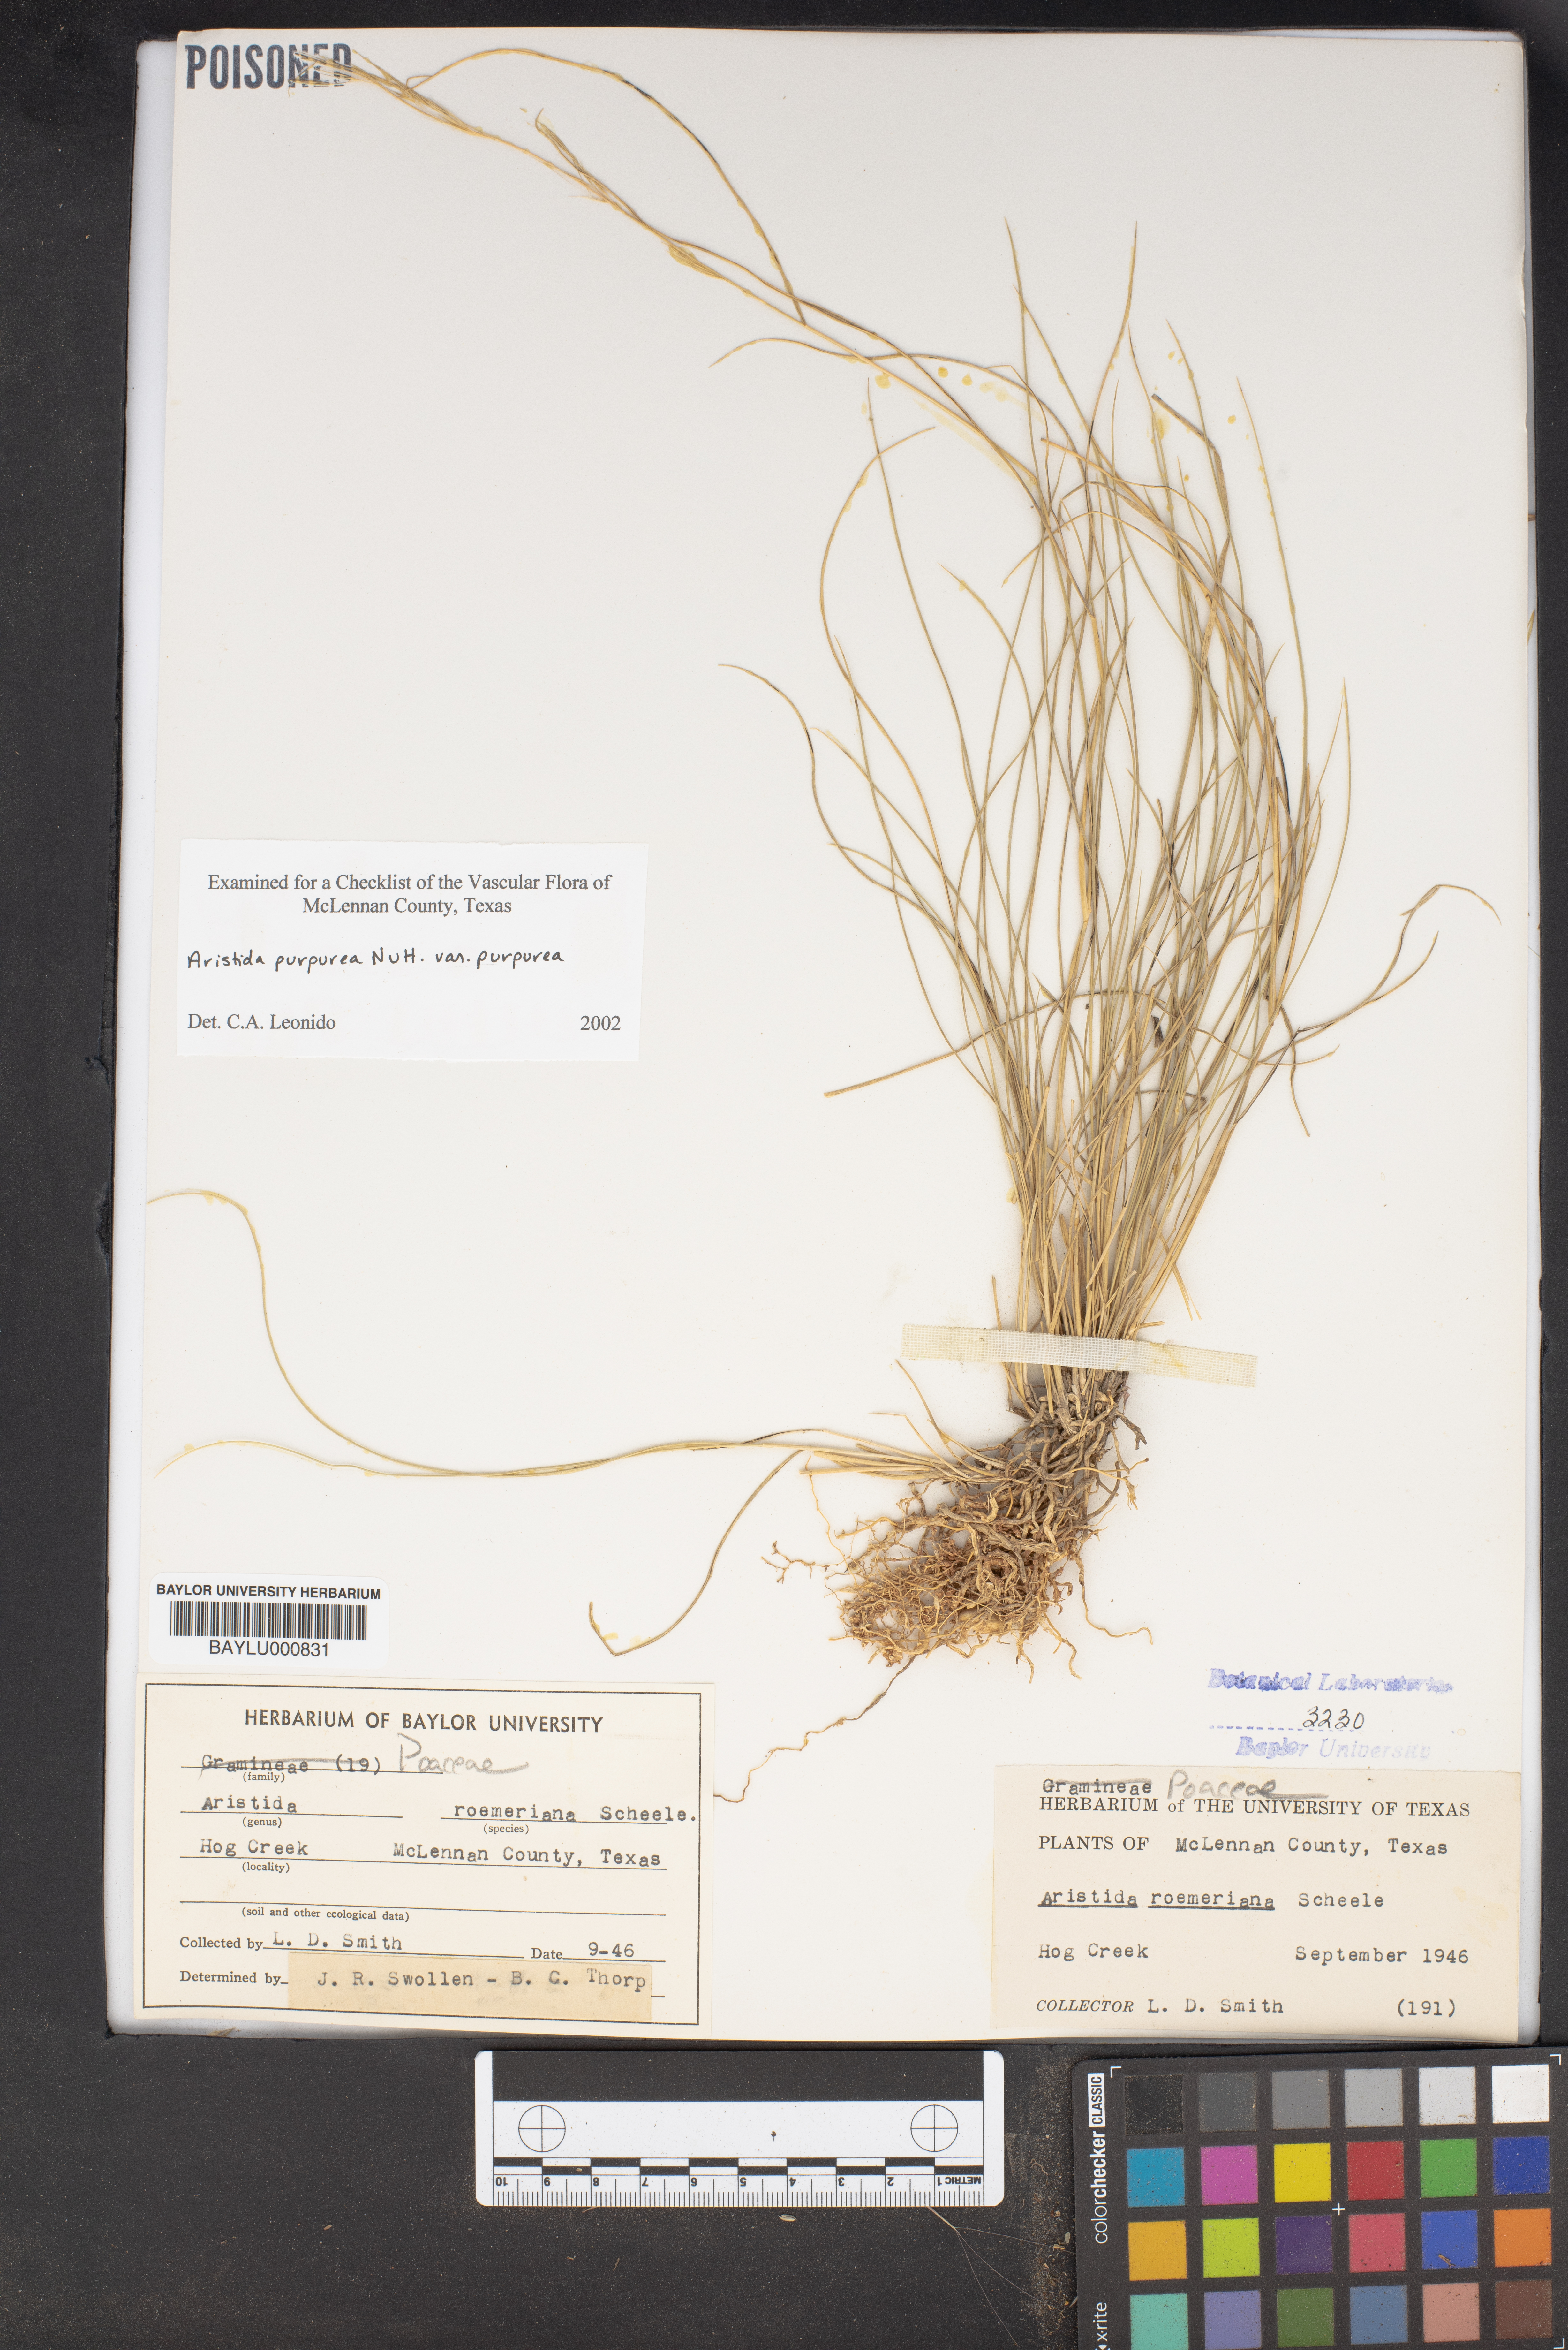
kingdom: Plantae
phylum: Tracheophyta
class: Liliopsida
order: Poales
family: Poaceae
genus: Aristida
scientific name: Aristida purpurea
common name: Purple threeawn
